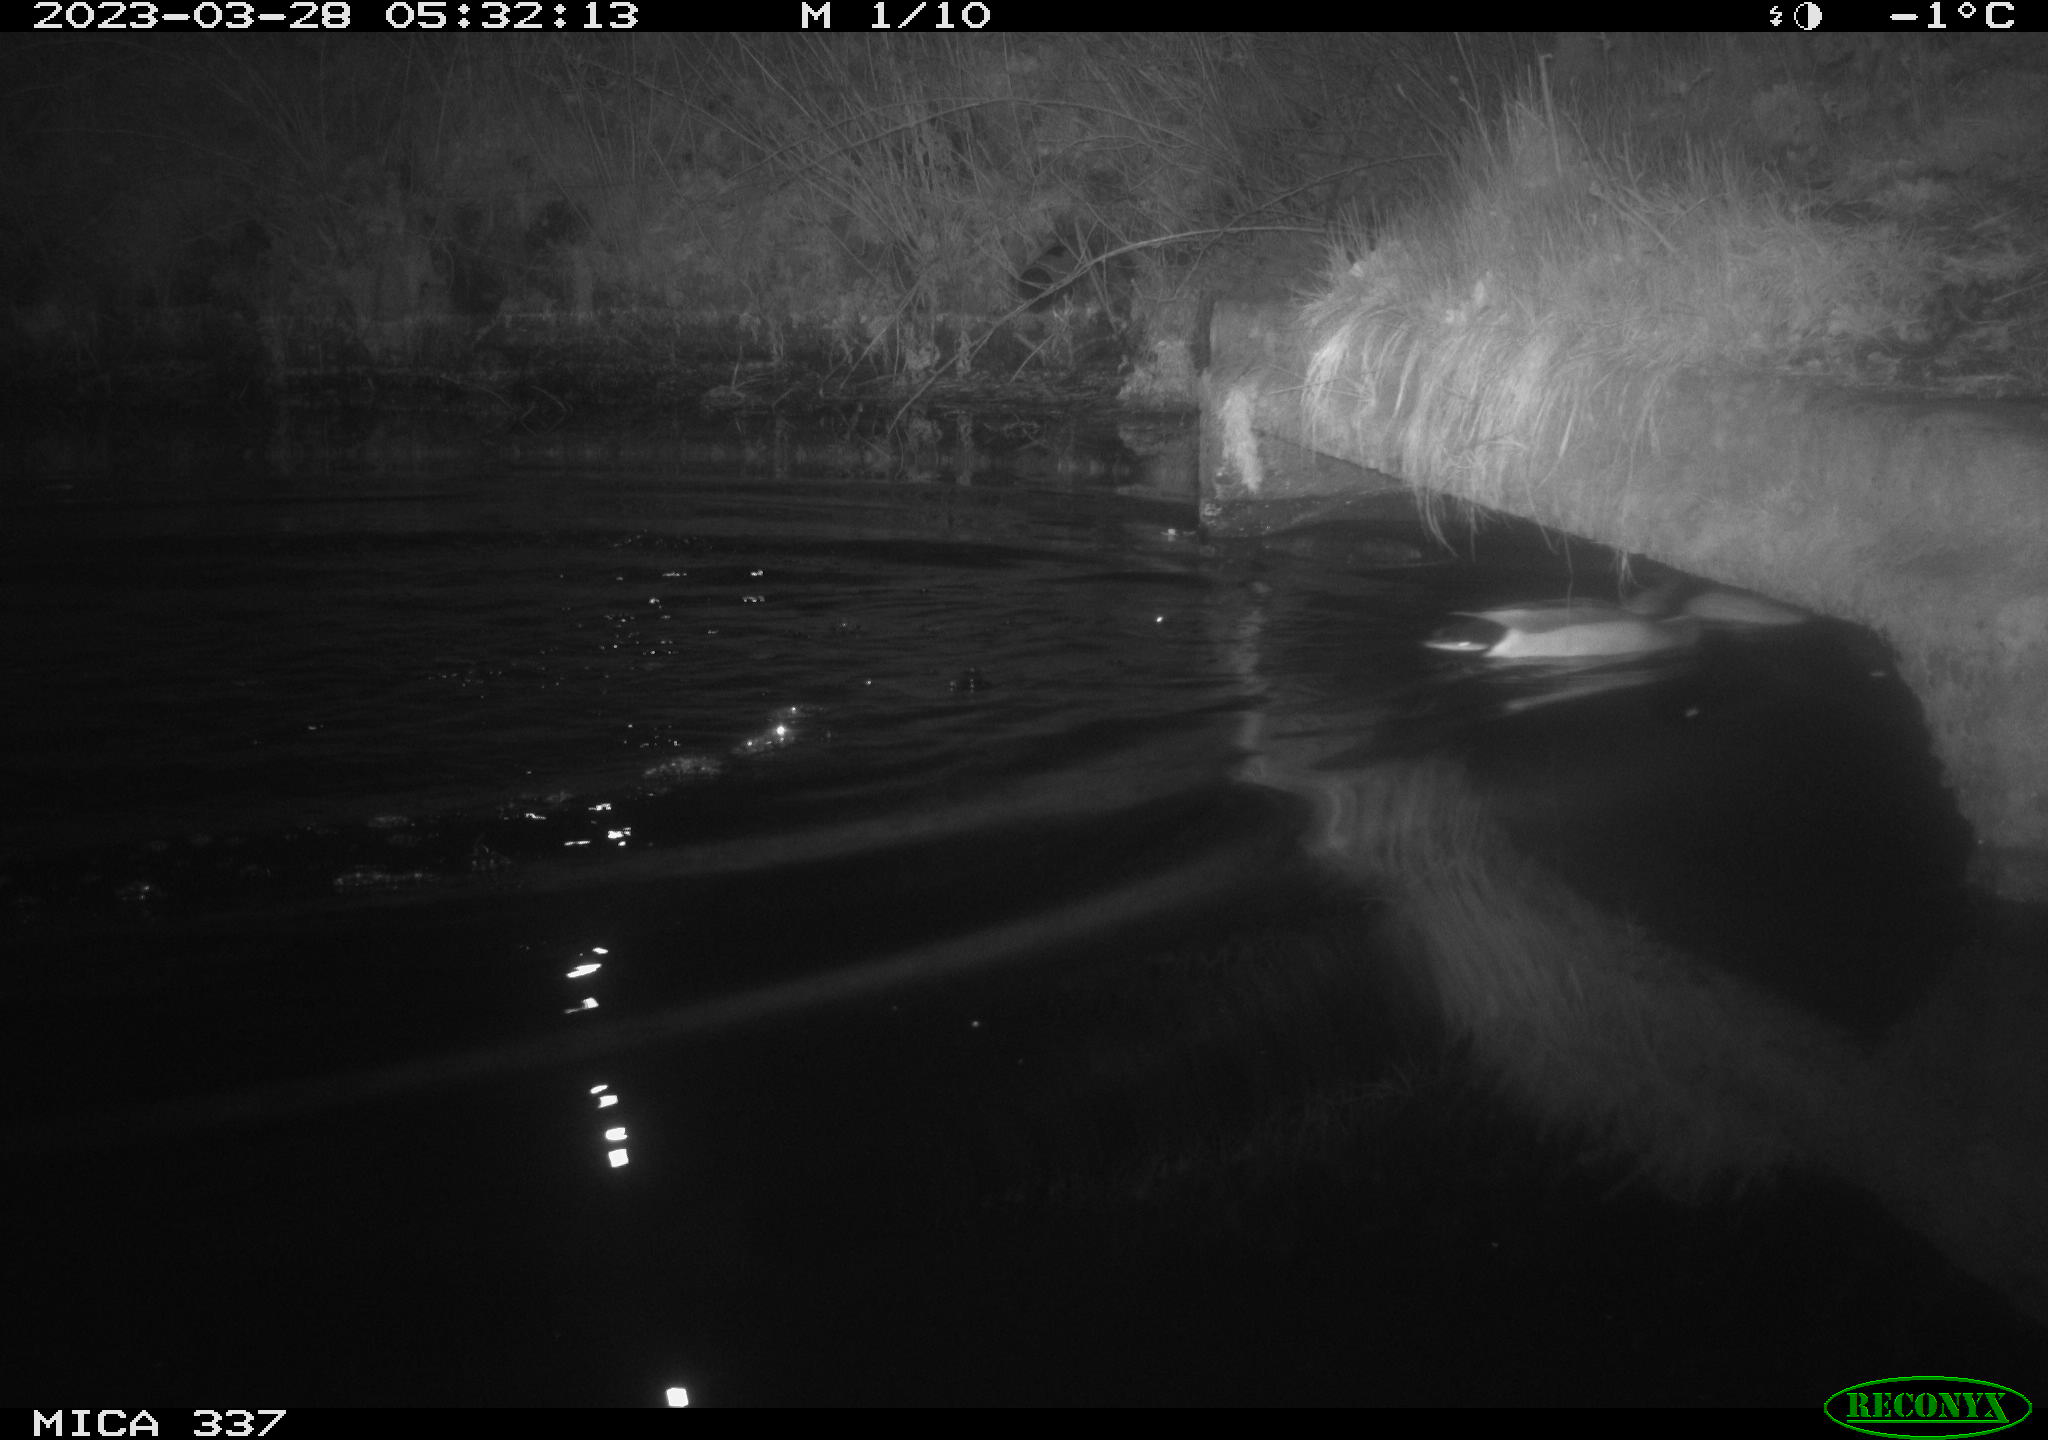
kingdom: Animalia
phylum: Chordata
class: Aves
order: Anseriformes
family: Anatidae
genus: Anas
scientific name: Anas
